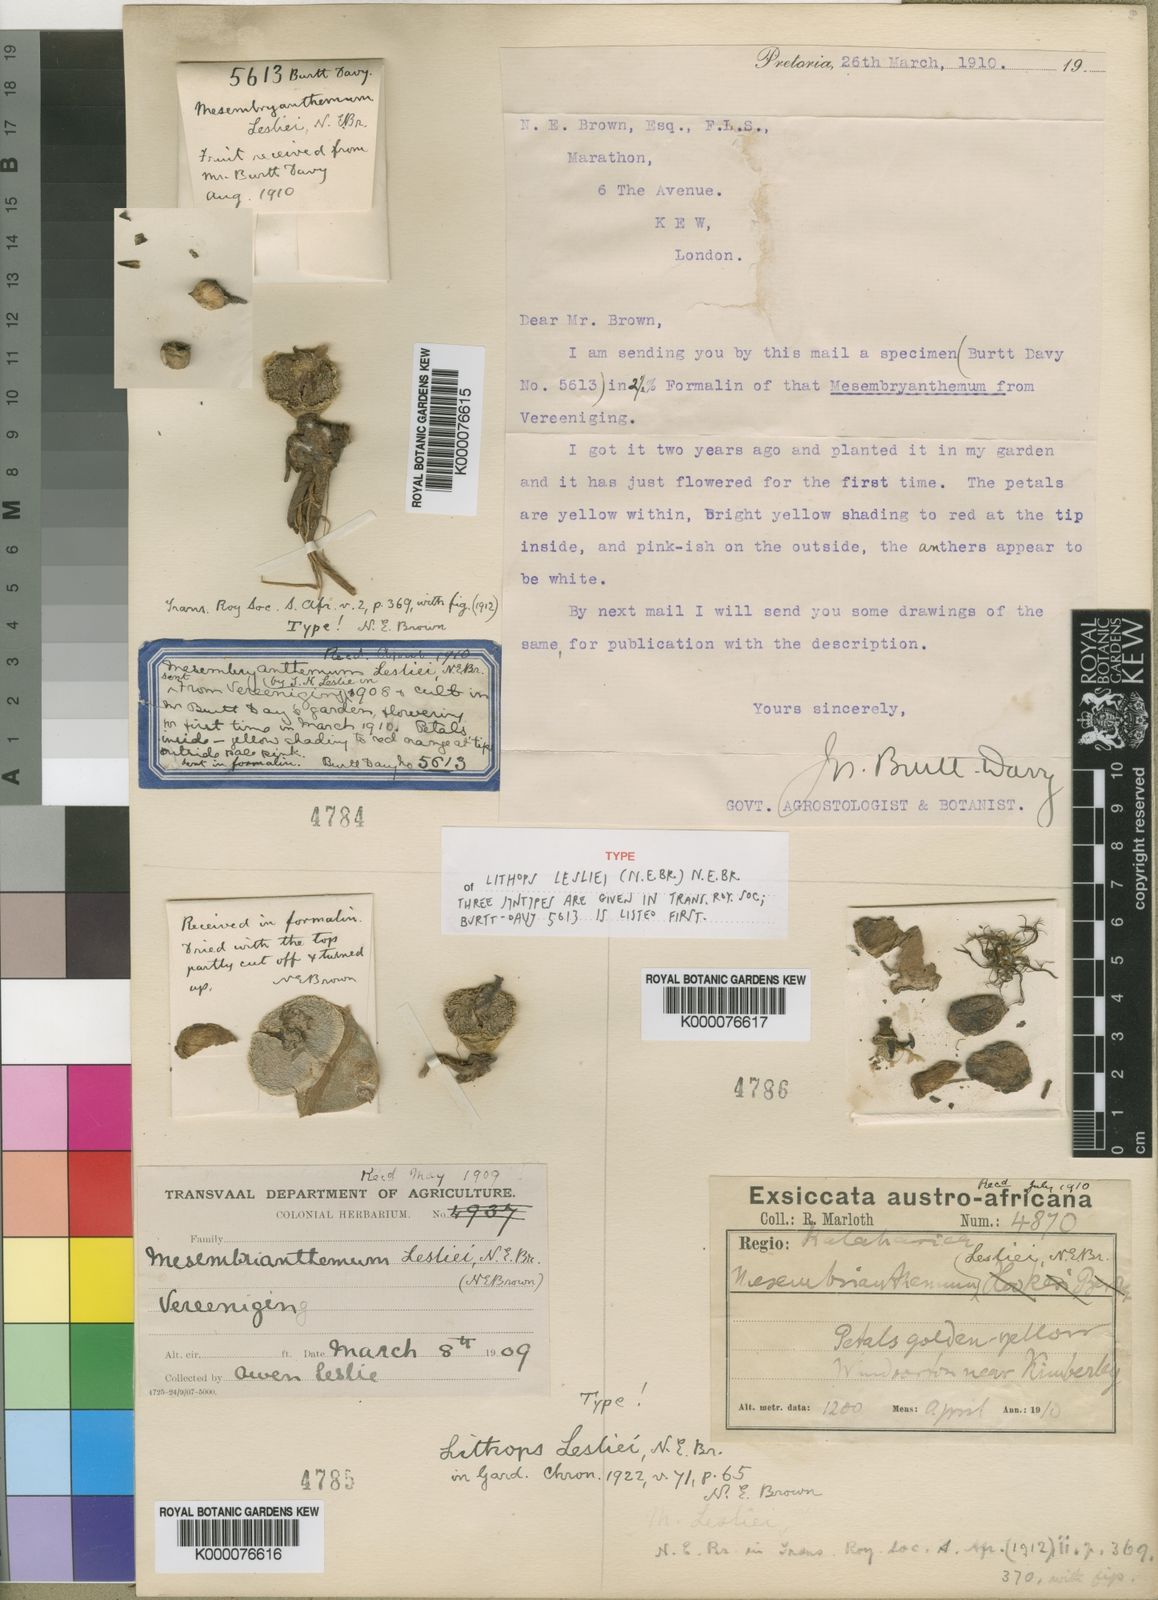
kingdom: Plantae
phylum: Tracheophyta
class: Magnoliopsida
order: Caryophyllales
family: Aizoaceae
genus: Lithops
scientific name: Lithops lesliei
